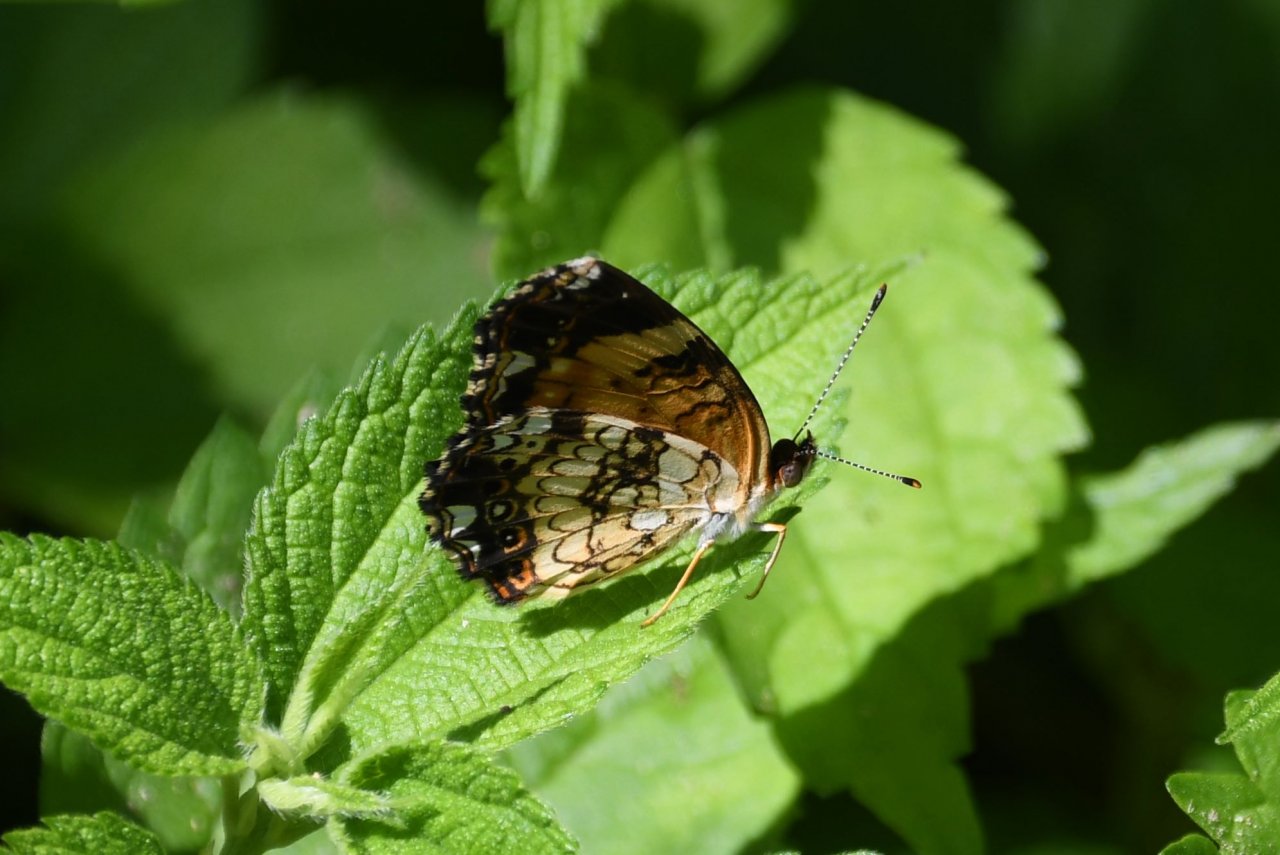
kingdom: Animalia
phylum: Arthropoda
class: Insecta
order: Lepidoptera
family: Nymphalidae
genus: Chlosyne
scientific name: Chlosyne nycteis
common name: Silvery Checkerspot
